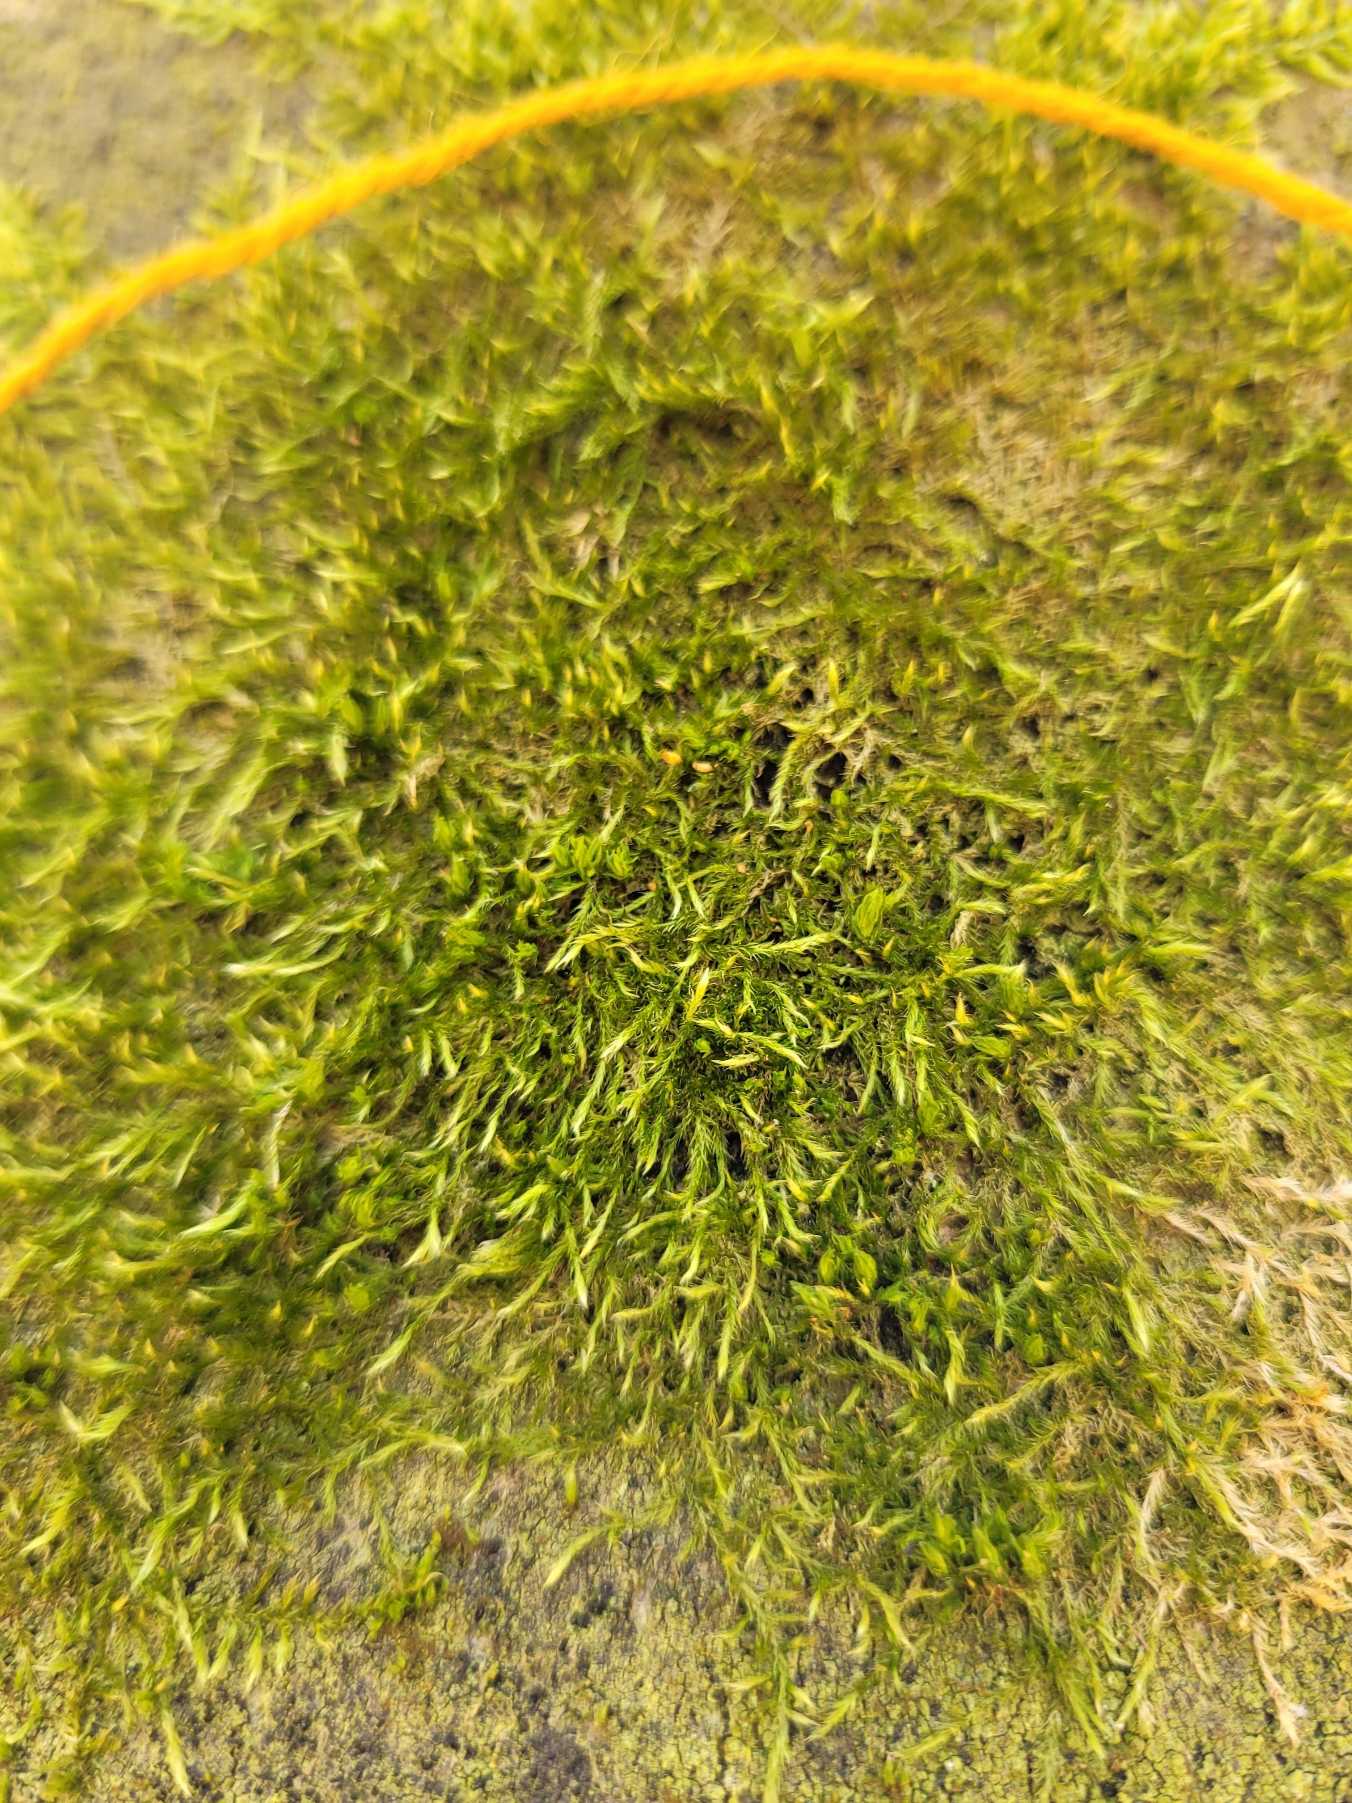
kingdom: Plantae
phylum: Bryophyta
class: Bryopsida
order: Hypnales
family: Hypnaceae
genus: Hypnum
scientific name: Hypnum
